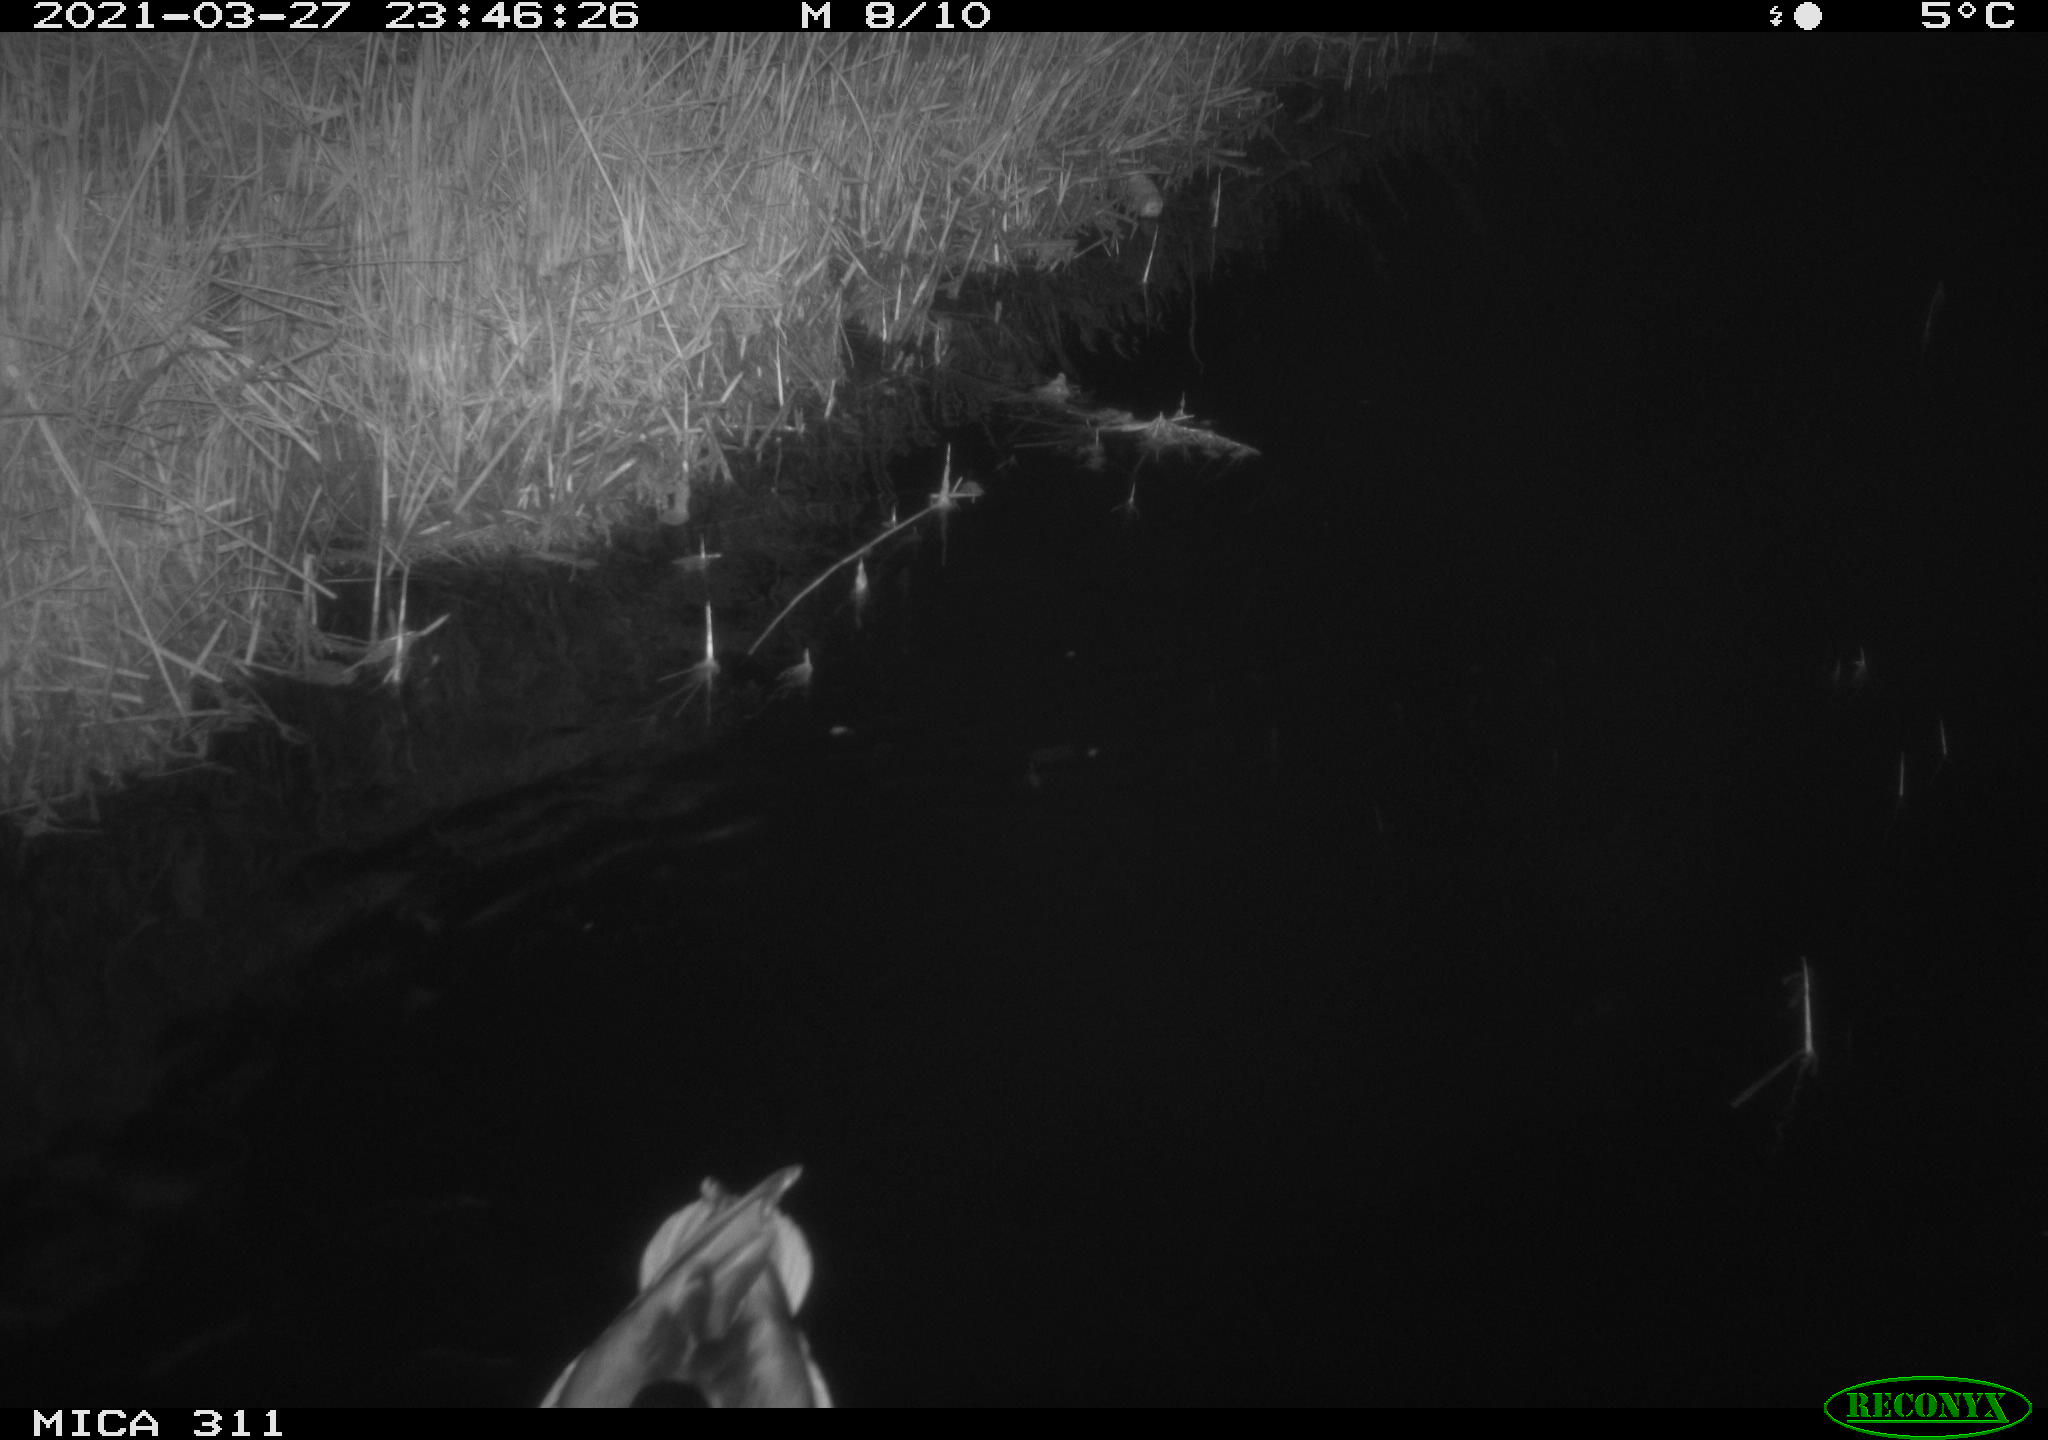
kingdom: Animalia
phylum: Chordata
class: Aves
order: Anseriformes
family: Anatidae
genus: Anas
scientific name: Anas
